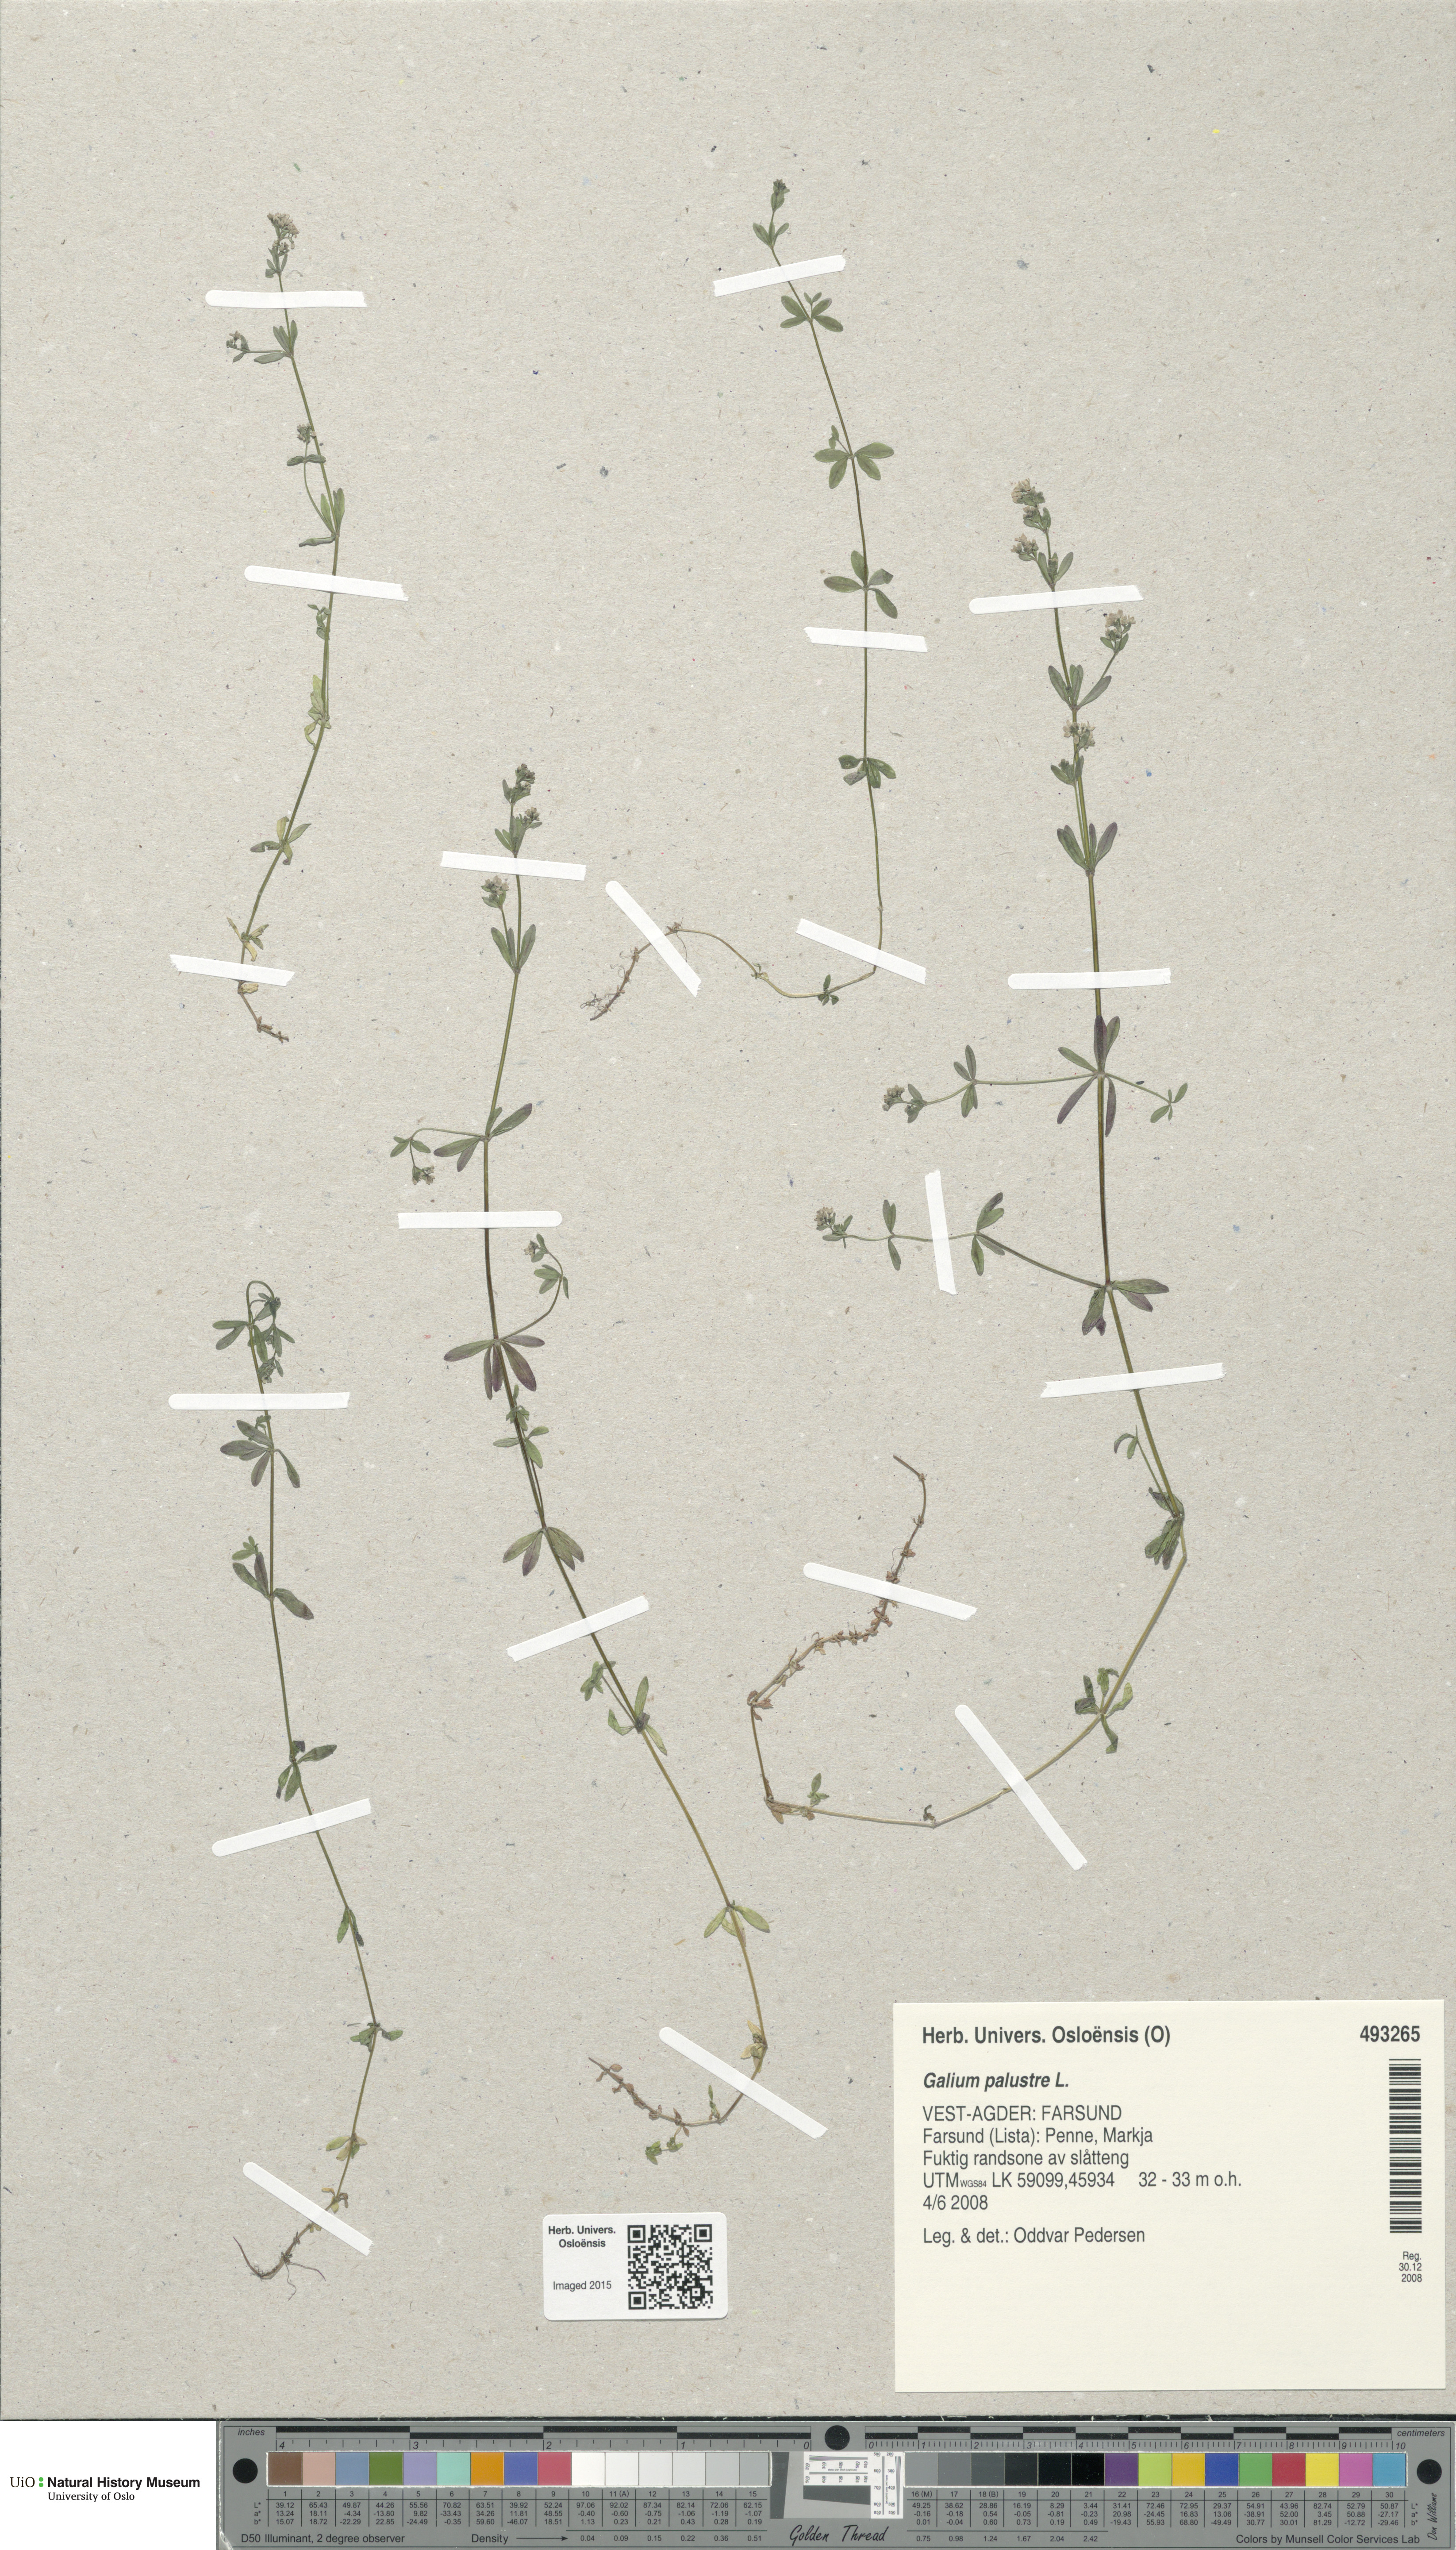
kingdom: Plantae
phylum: Tracheophyta
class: Magnoliopsida
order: Gentianales
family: Rubiaceae
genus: Galium
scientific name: Galium palustre
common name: Common marsh-bedstraw
